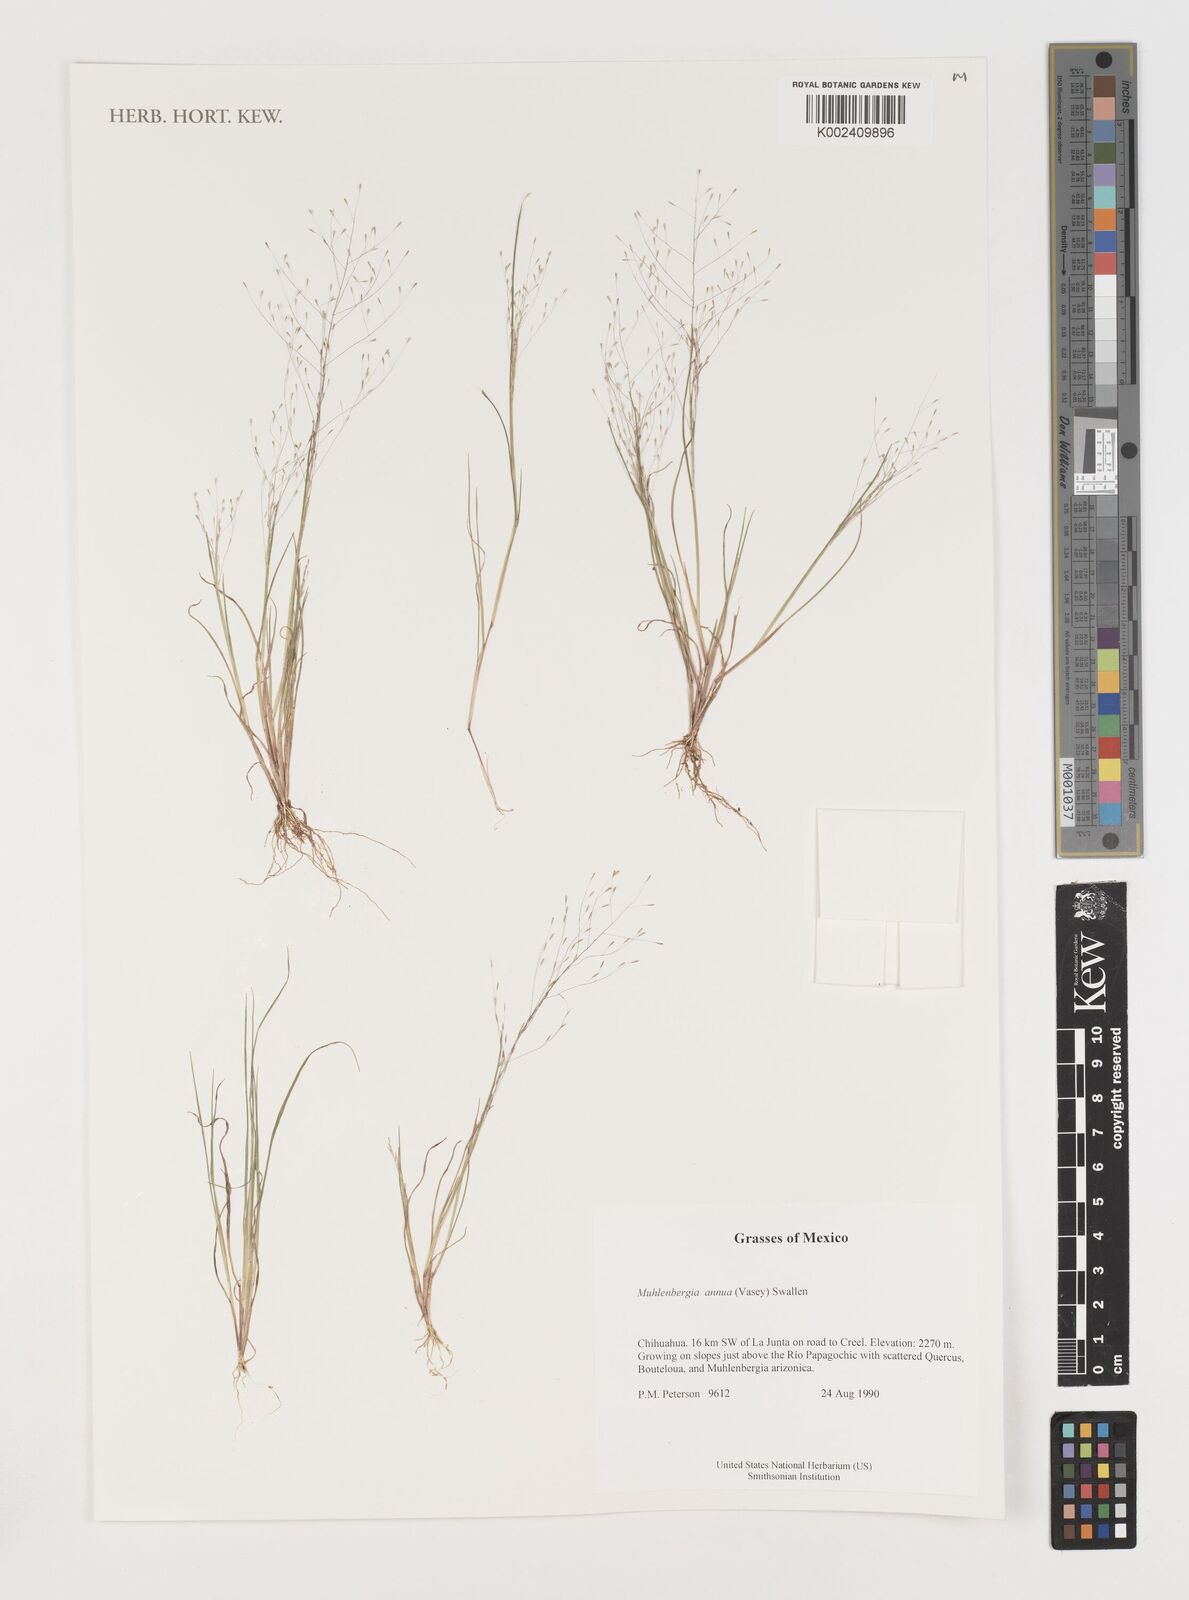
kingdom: Plantae
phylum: Tracheophyta
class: Liliopsida
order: Poales
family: Poaceae
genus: Muhlenbergia
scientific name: Muhlenbergia annua
